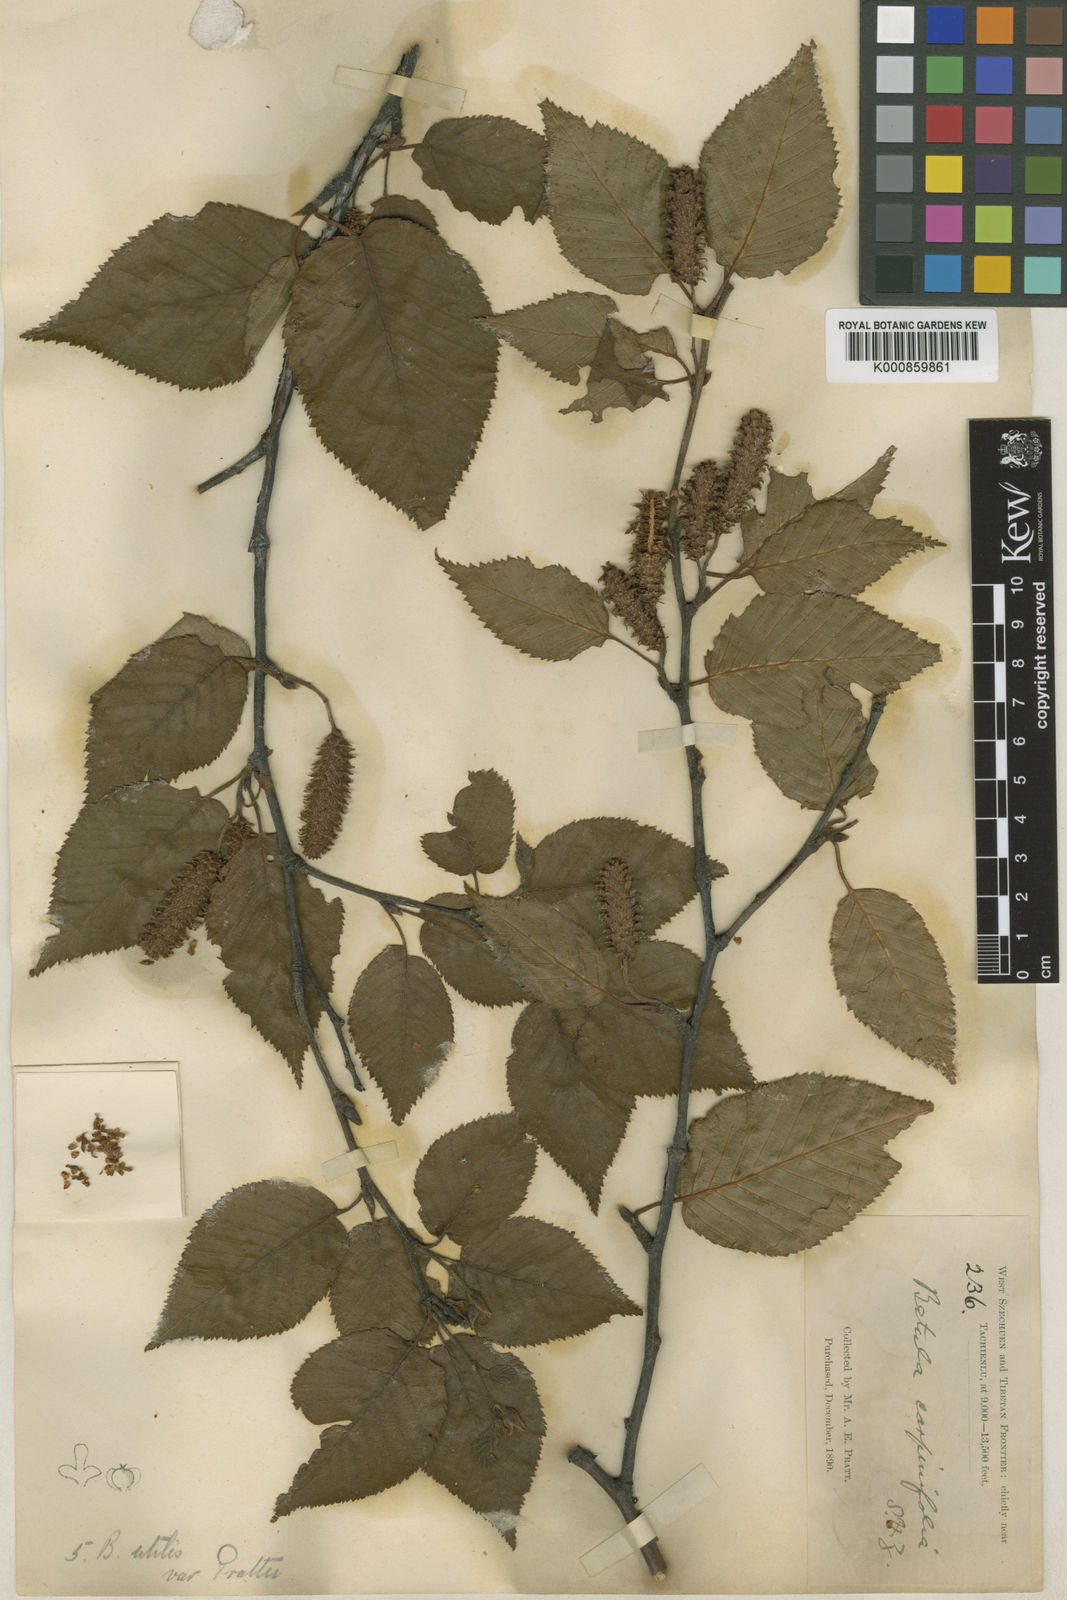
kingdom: Plantae
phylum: Tracheophyta
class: Magnoliopsida
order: Fagales
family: Betulaceae
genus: Betula
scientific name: Betula utilis
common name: Himalayan birch
